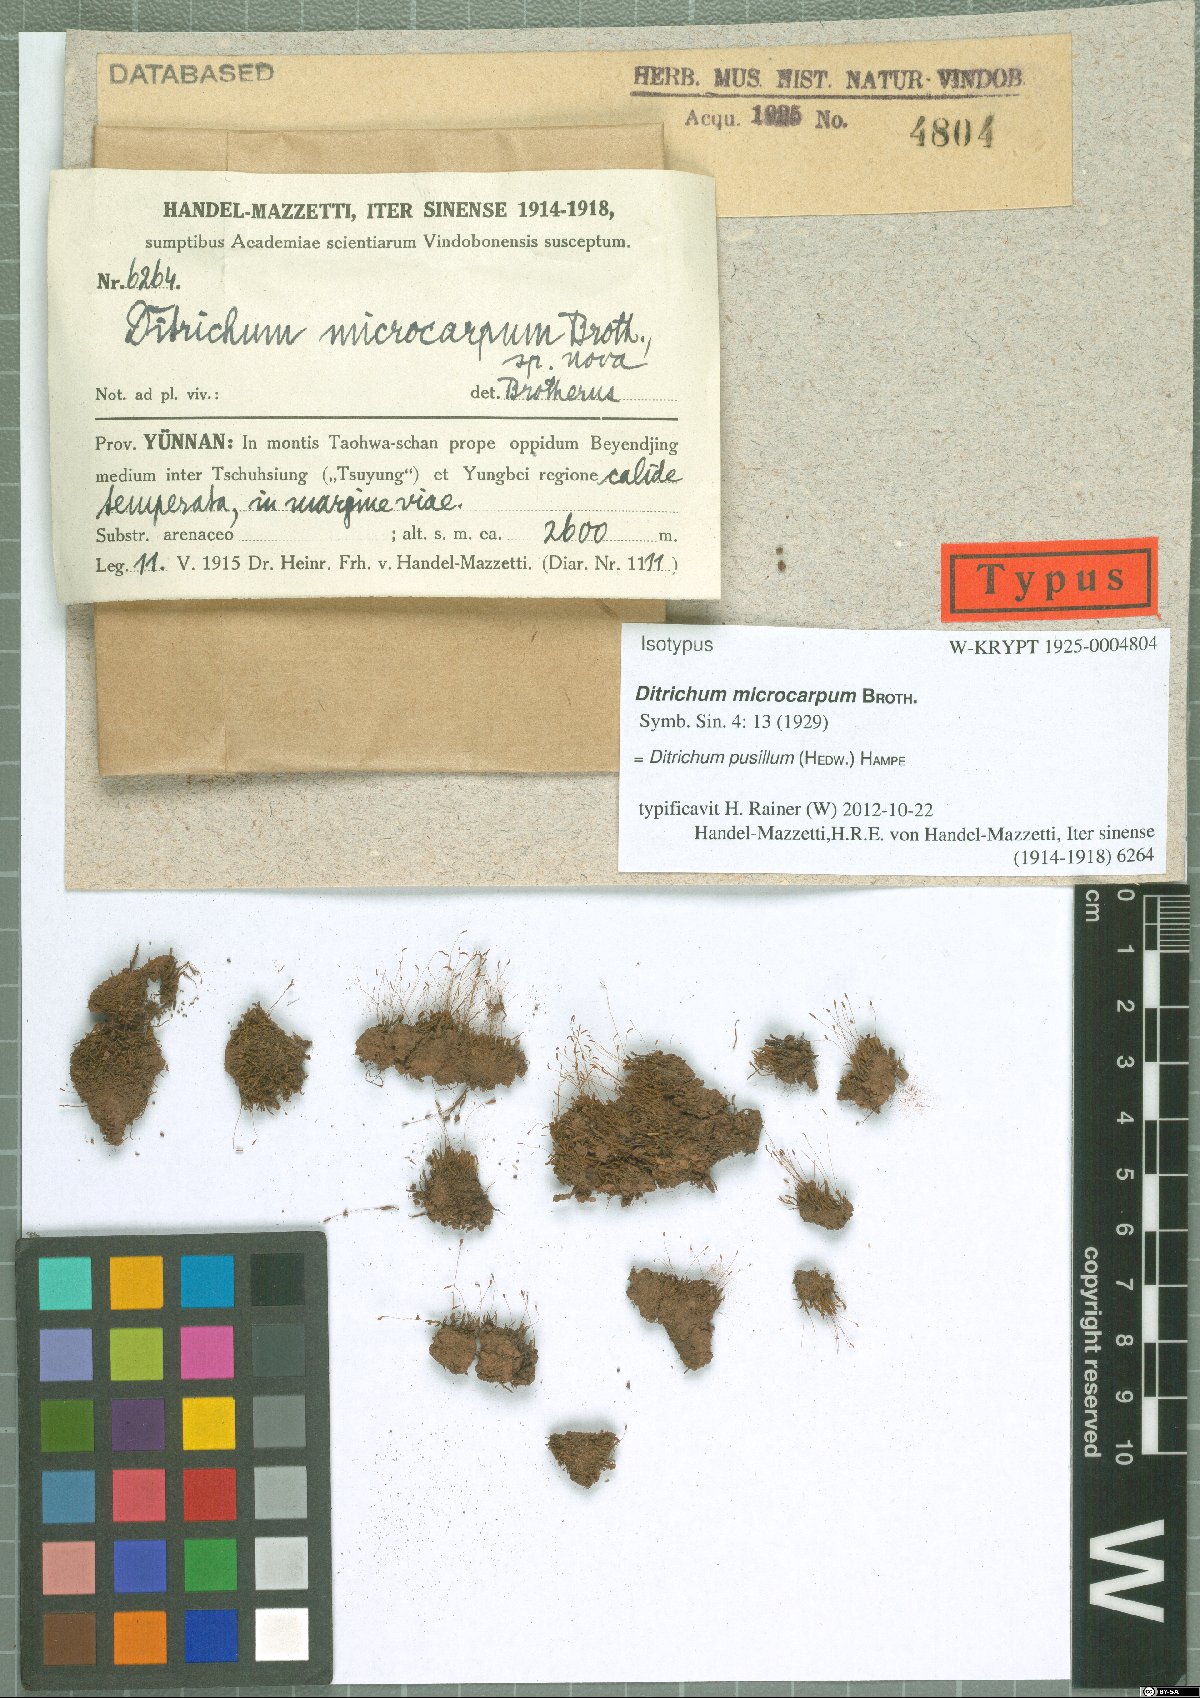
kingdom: Plantae
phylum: Bryophyta
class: Bryopsida
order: Dicranales
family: Ditrichaceae
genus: Ditrichum
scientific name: Ditrichum pusillum
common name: Brown cow-hair moss
